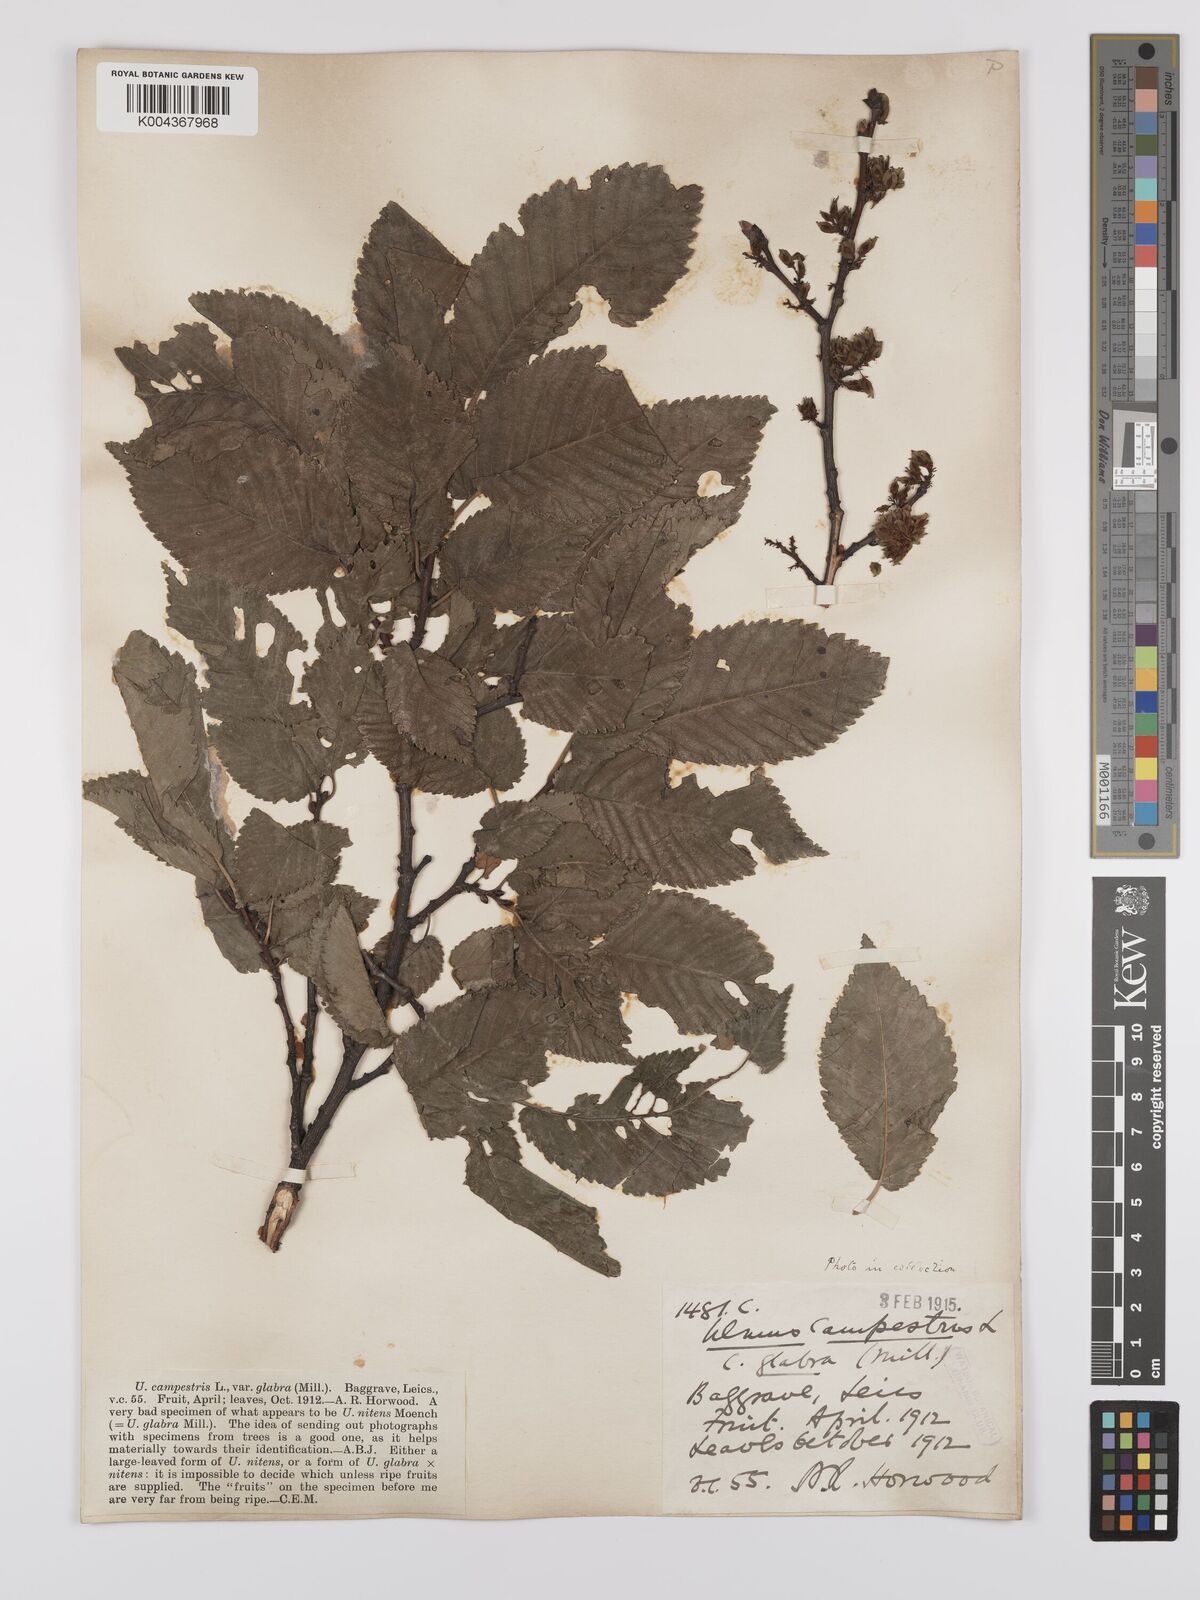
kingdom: Plantae
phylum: Tracheophyta
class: Magnoliopsida
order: Rosales
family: Ulmaceae
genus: Ulmus
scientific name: Ulmus glabra
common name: Wych elm
